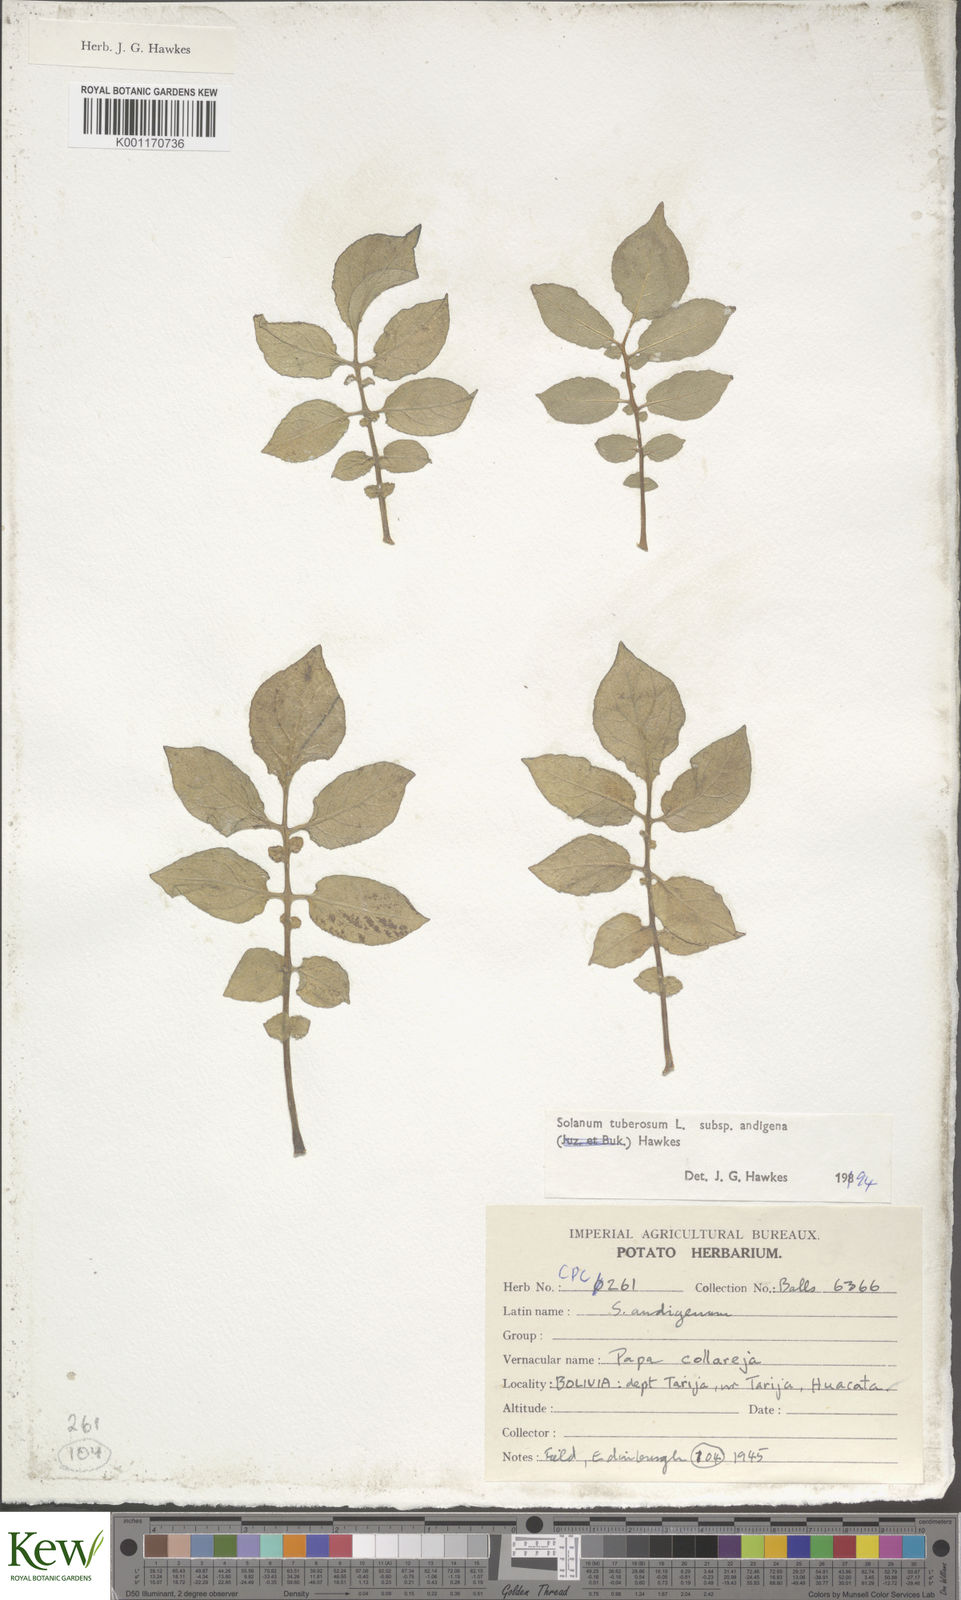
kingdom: Plantae
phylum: Tracheophyta
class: Magnoliopsida
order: Solanales
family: Solanaceae
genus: Solanum
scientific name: Solanum tuberosum
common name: Potato
